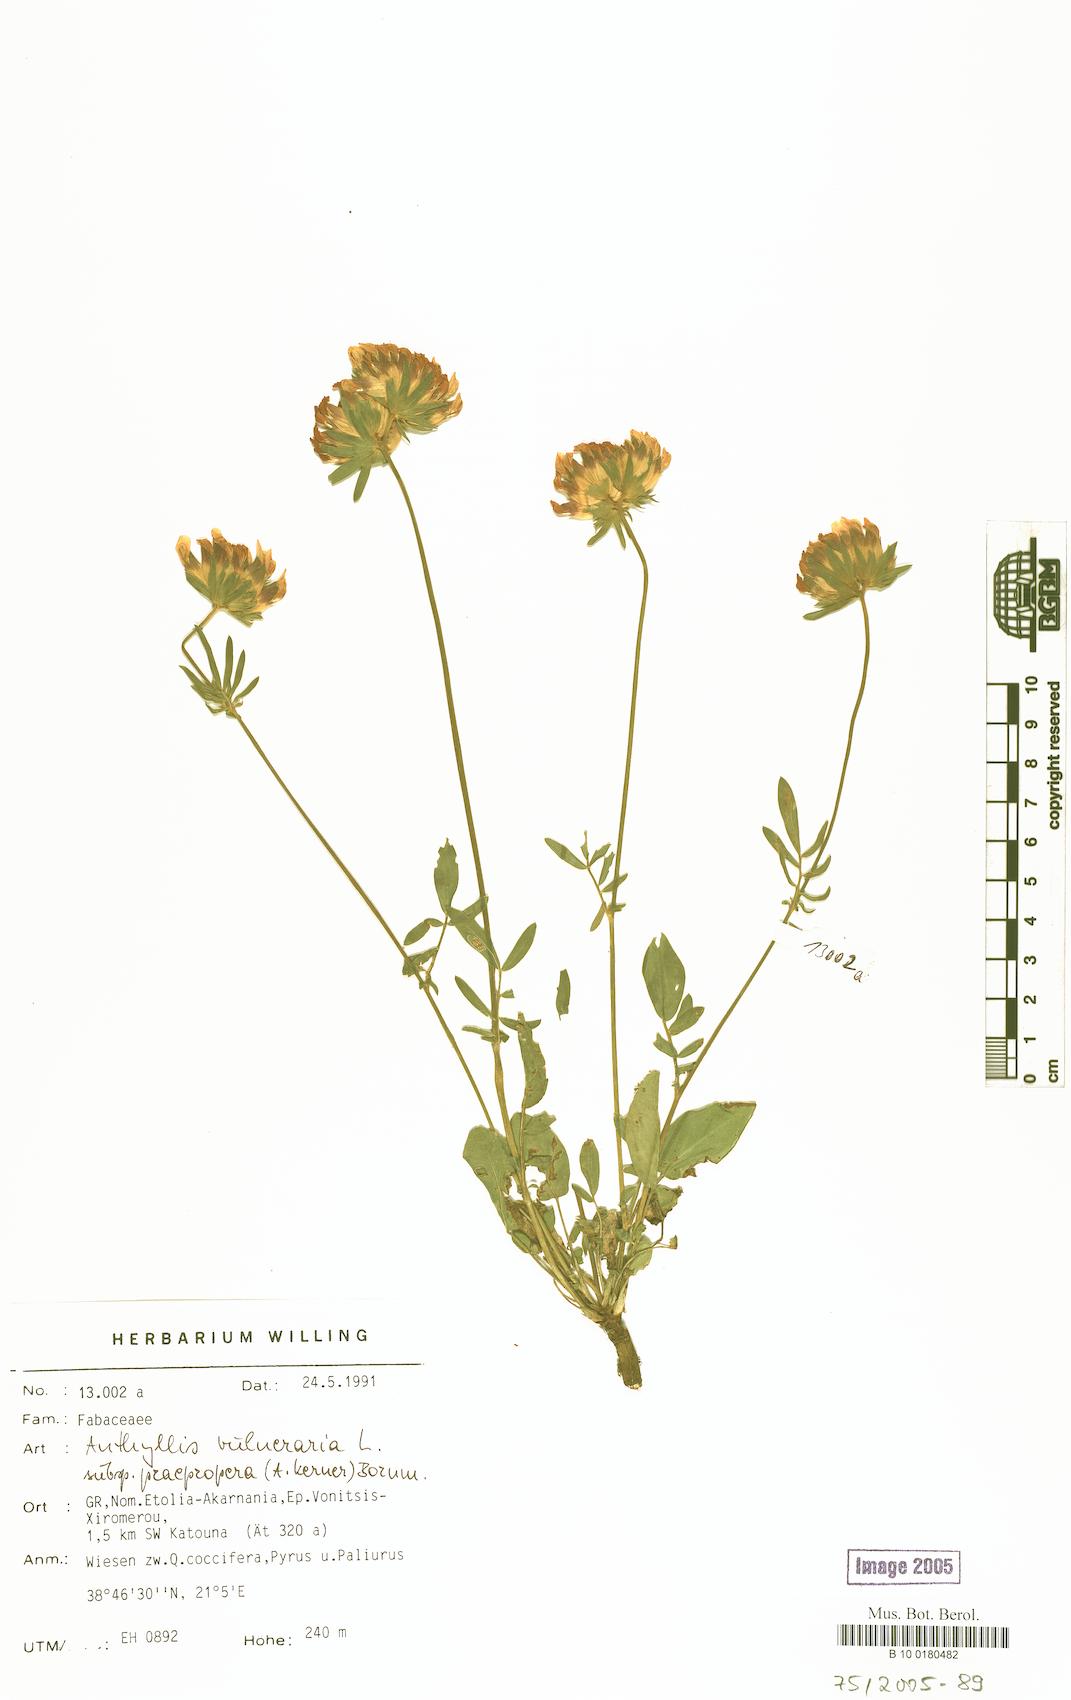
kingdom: Plantae
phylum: Tracheophyta
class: Magnoliopsida
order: Fabales
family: Fabaceae
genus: Anthyllis
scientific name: Anthyllis vulneraria
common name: Kidney vetch
